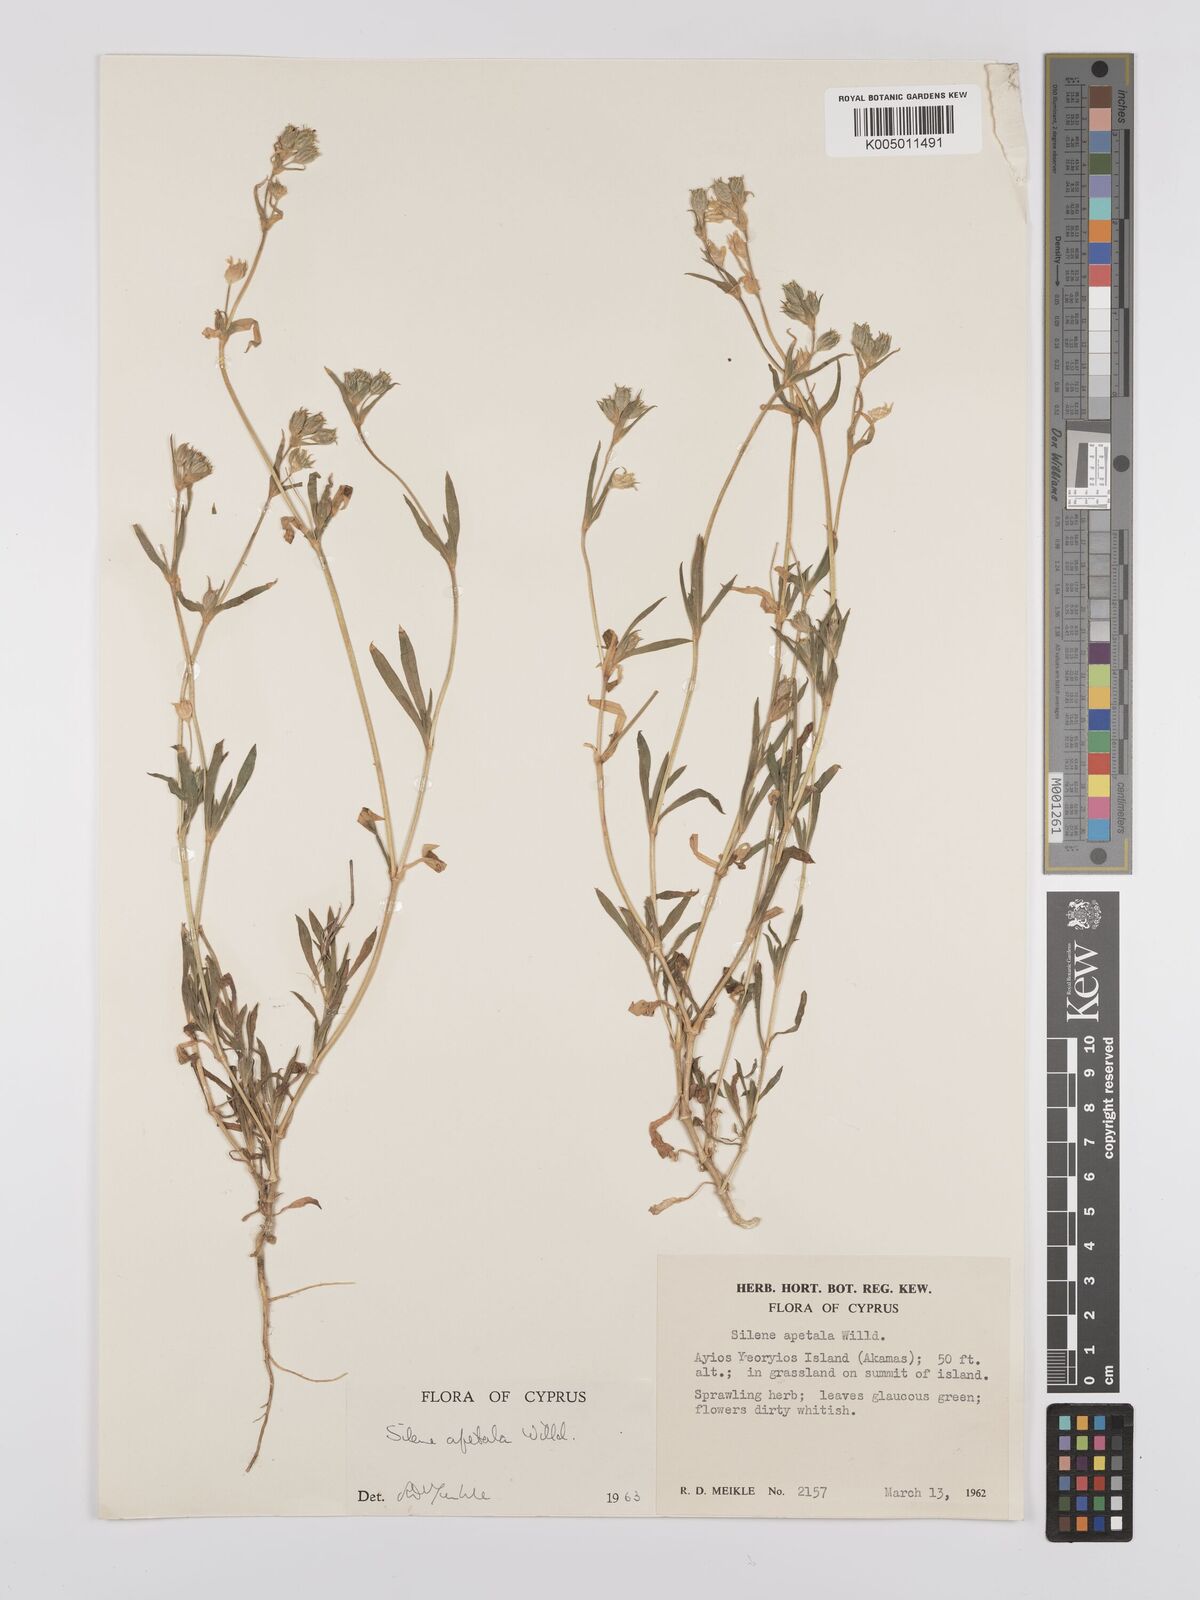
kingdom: Plantae
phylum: Tracheophyta
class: Magnoliopsida
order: Caryophyllales
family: Caryophyllaceae
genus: Silene
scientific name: Silene apetala
